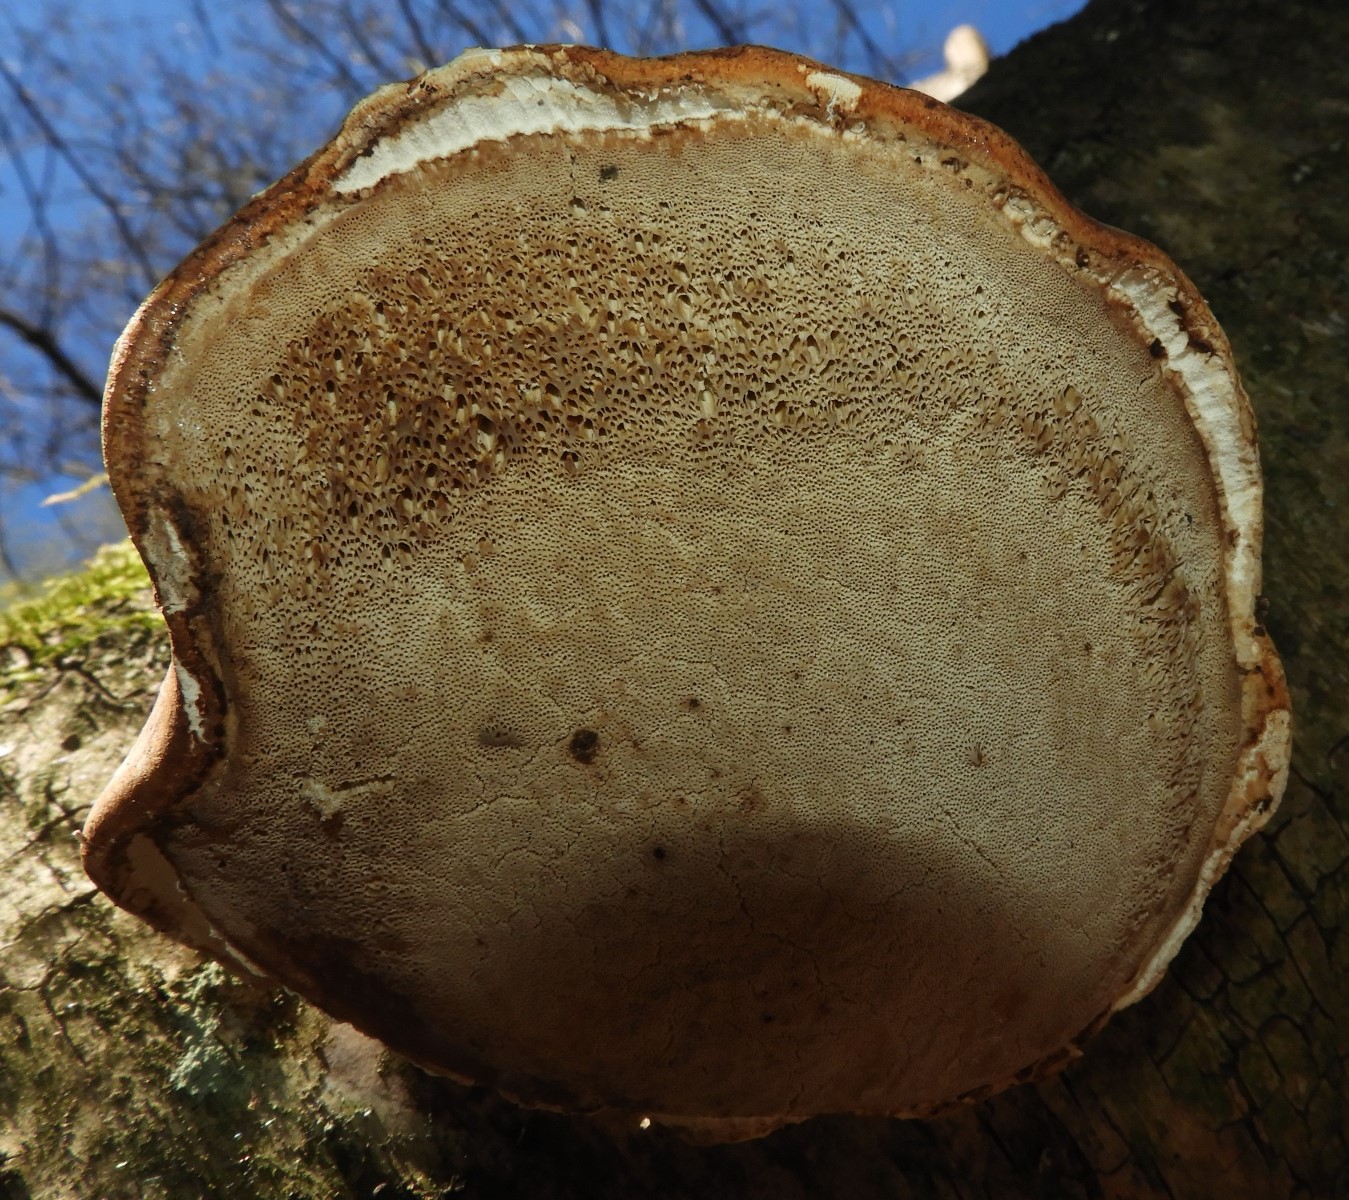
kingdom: Fungi
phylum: Basidiomycota
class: Agaricomycetes
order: Polyporales
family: Fomitopsidaceae
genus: Fomitopsis
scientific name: Fomitopsis betulina
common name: birkeporesvamp
